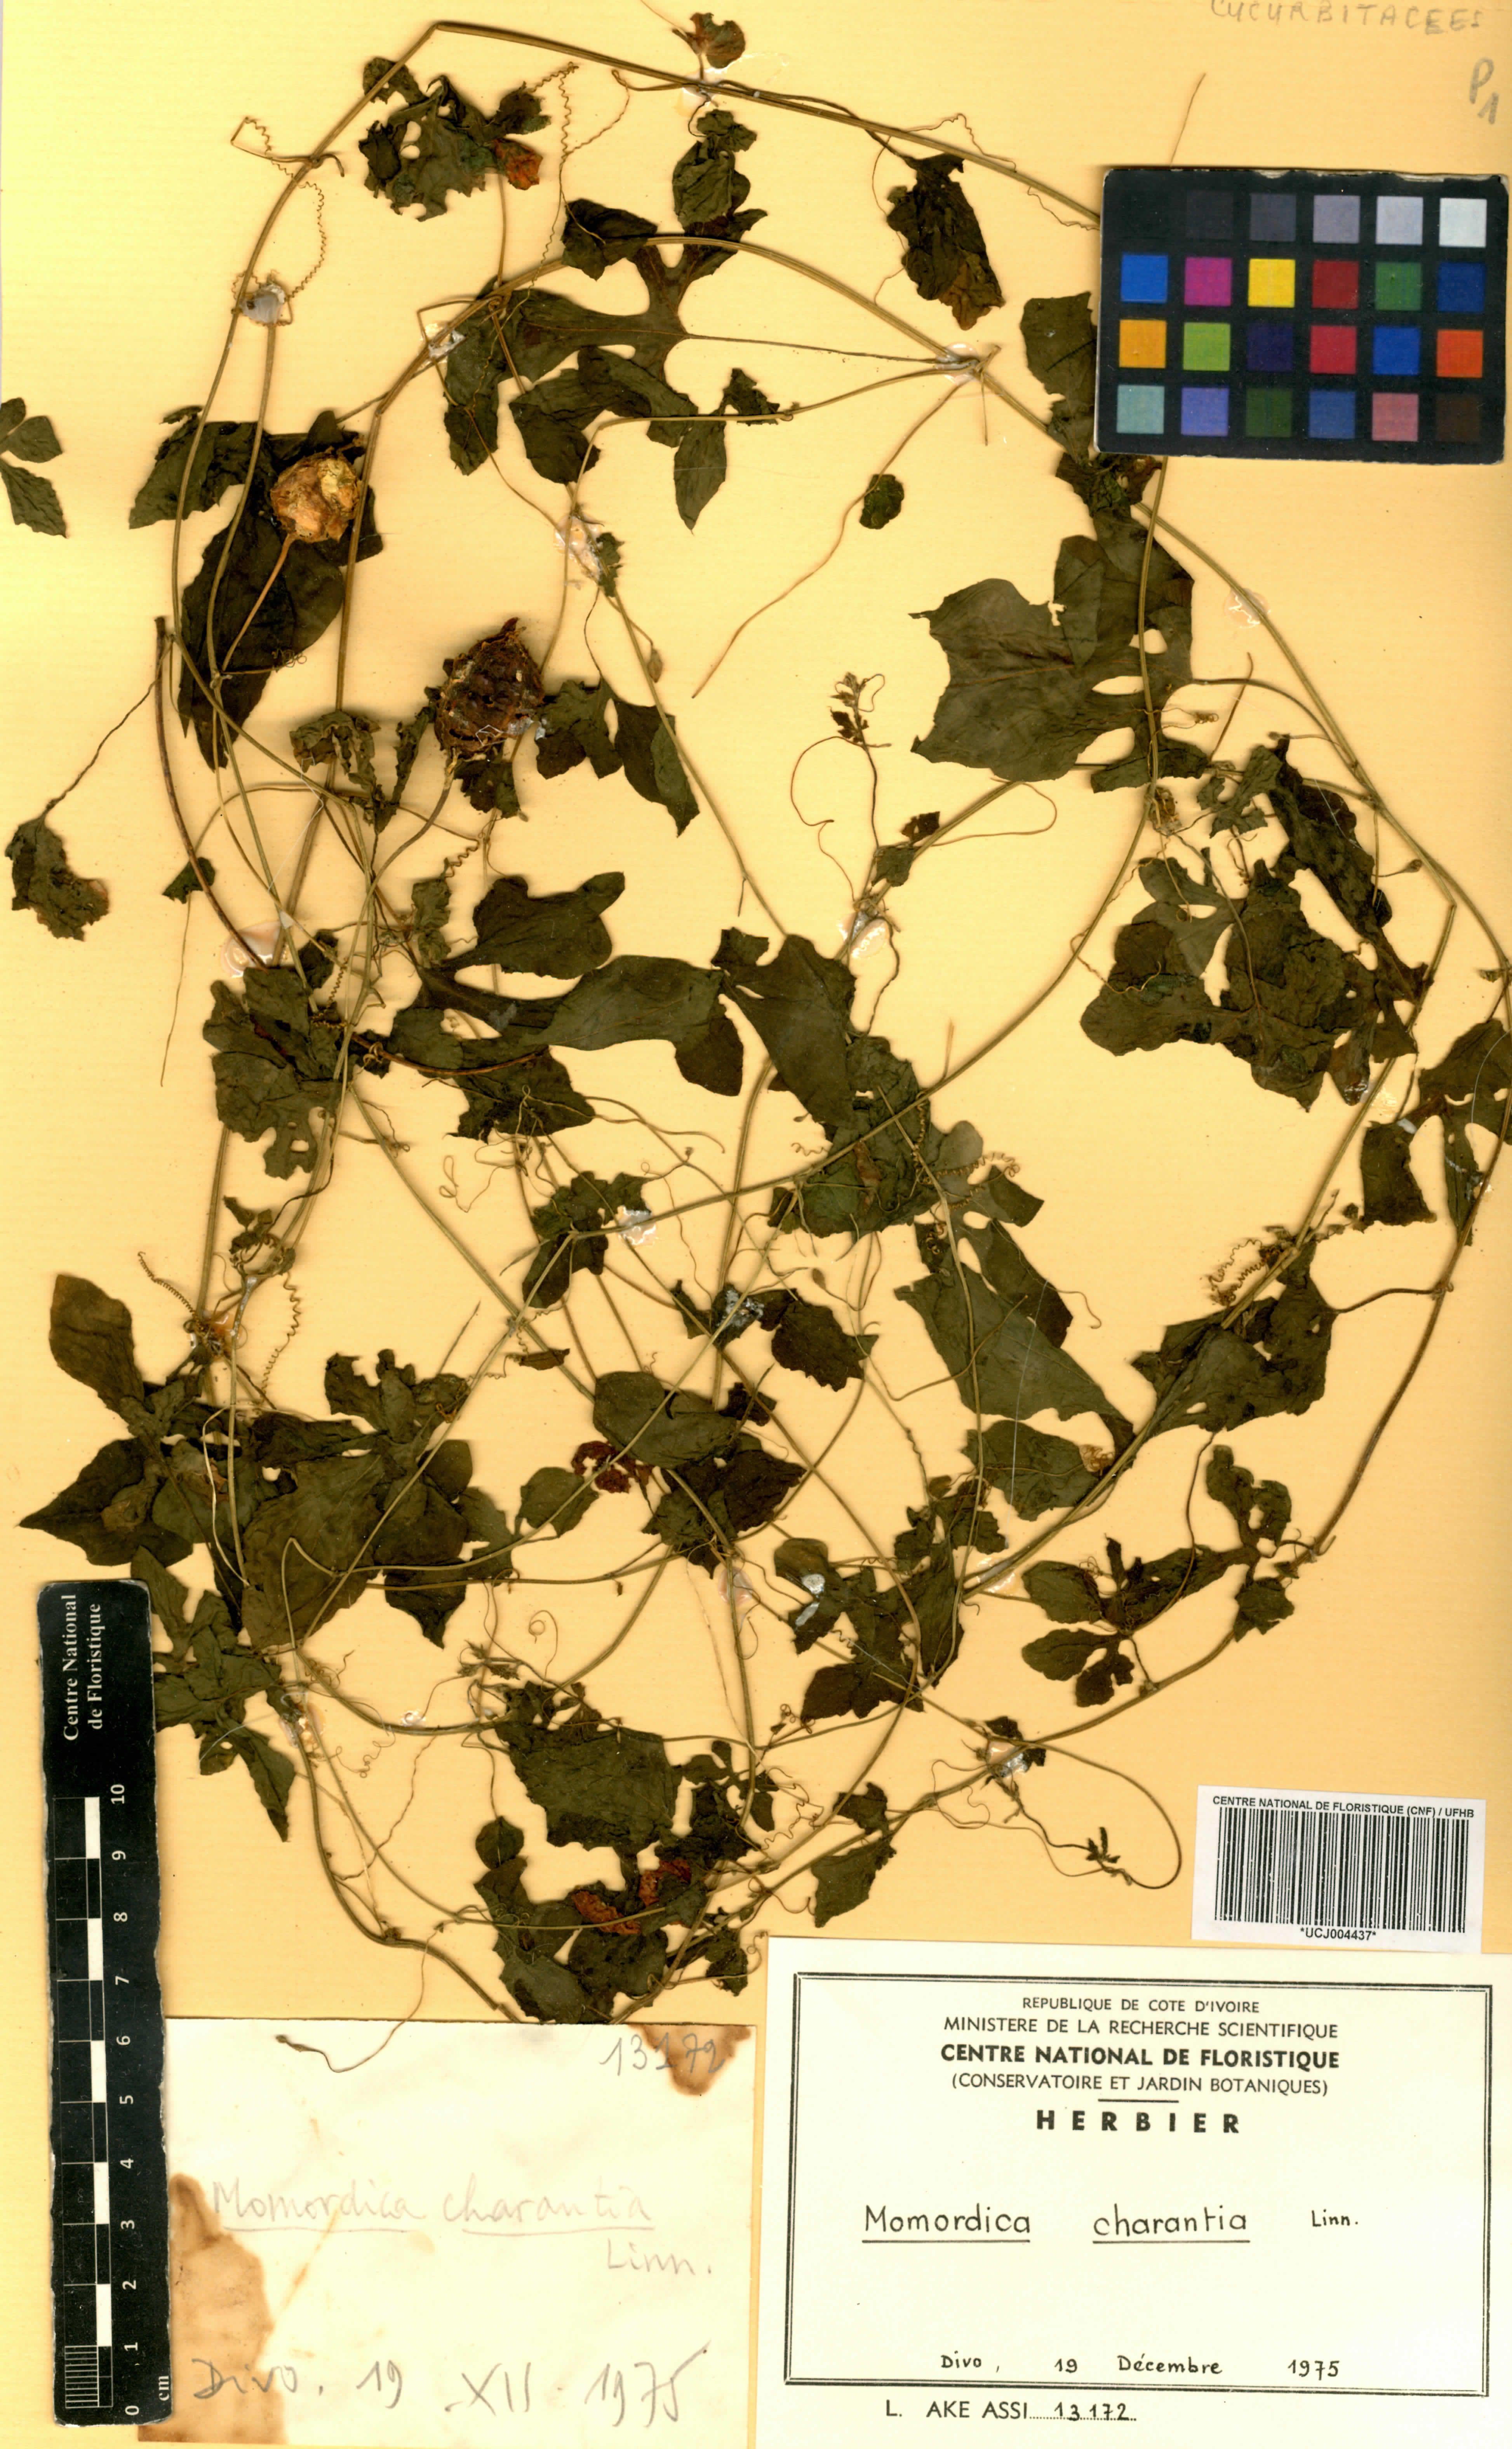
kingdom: Plantae
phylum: Tracheophyta
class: Magnoliopsida
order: Cucurbitales
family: Cucurbitaceae
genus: Momordica
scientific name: Momordica charantia
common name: Balsampear
